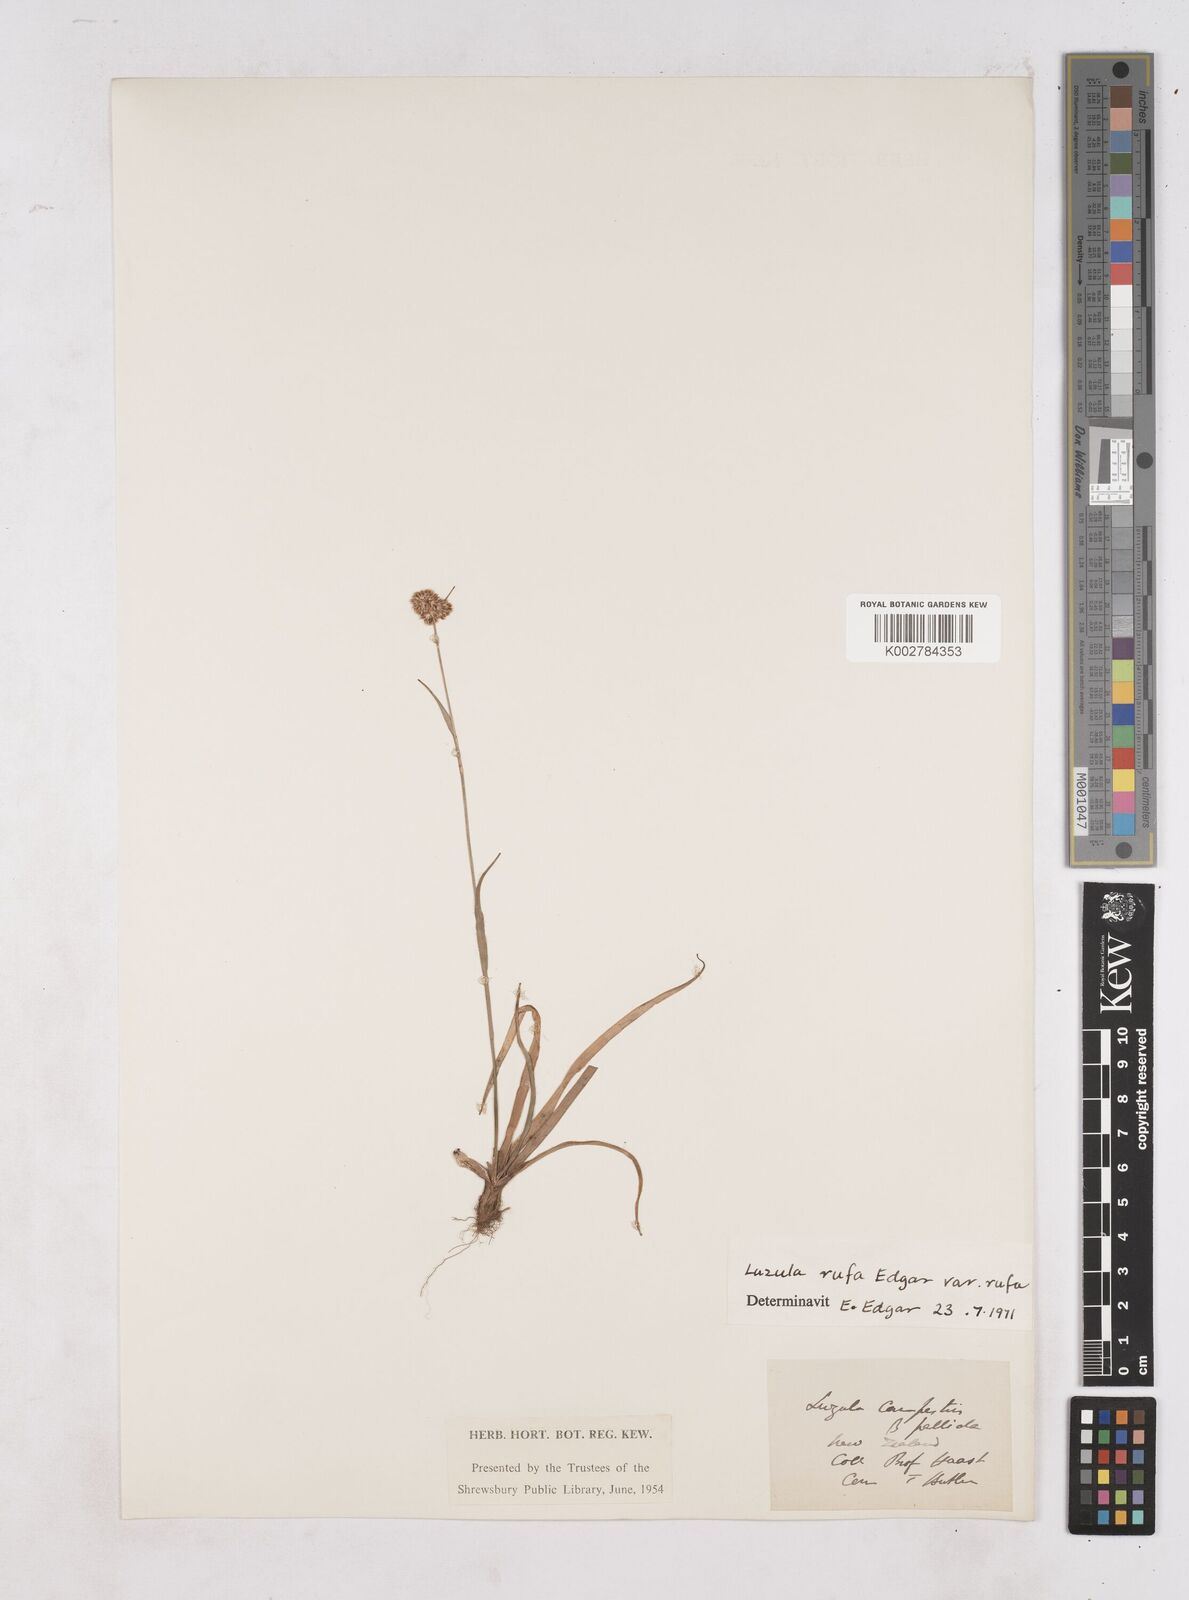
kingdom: Plantae
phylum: Tracheophyta
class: Liliopsida
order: Poales
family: Juncaceae
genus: Luzula
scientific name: Luzula rufa
